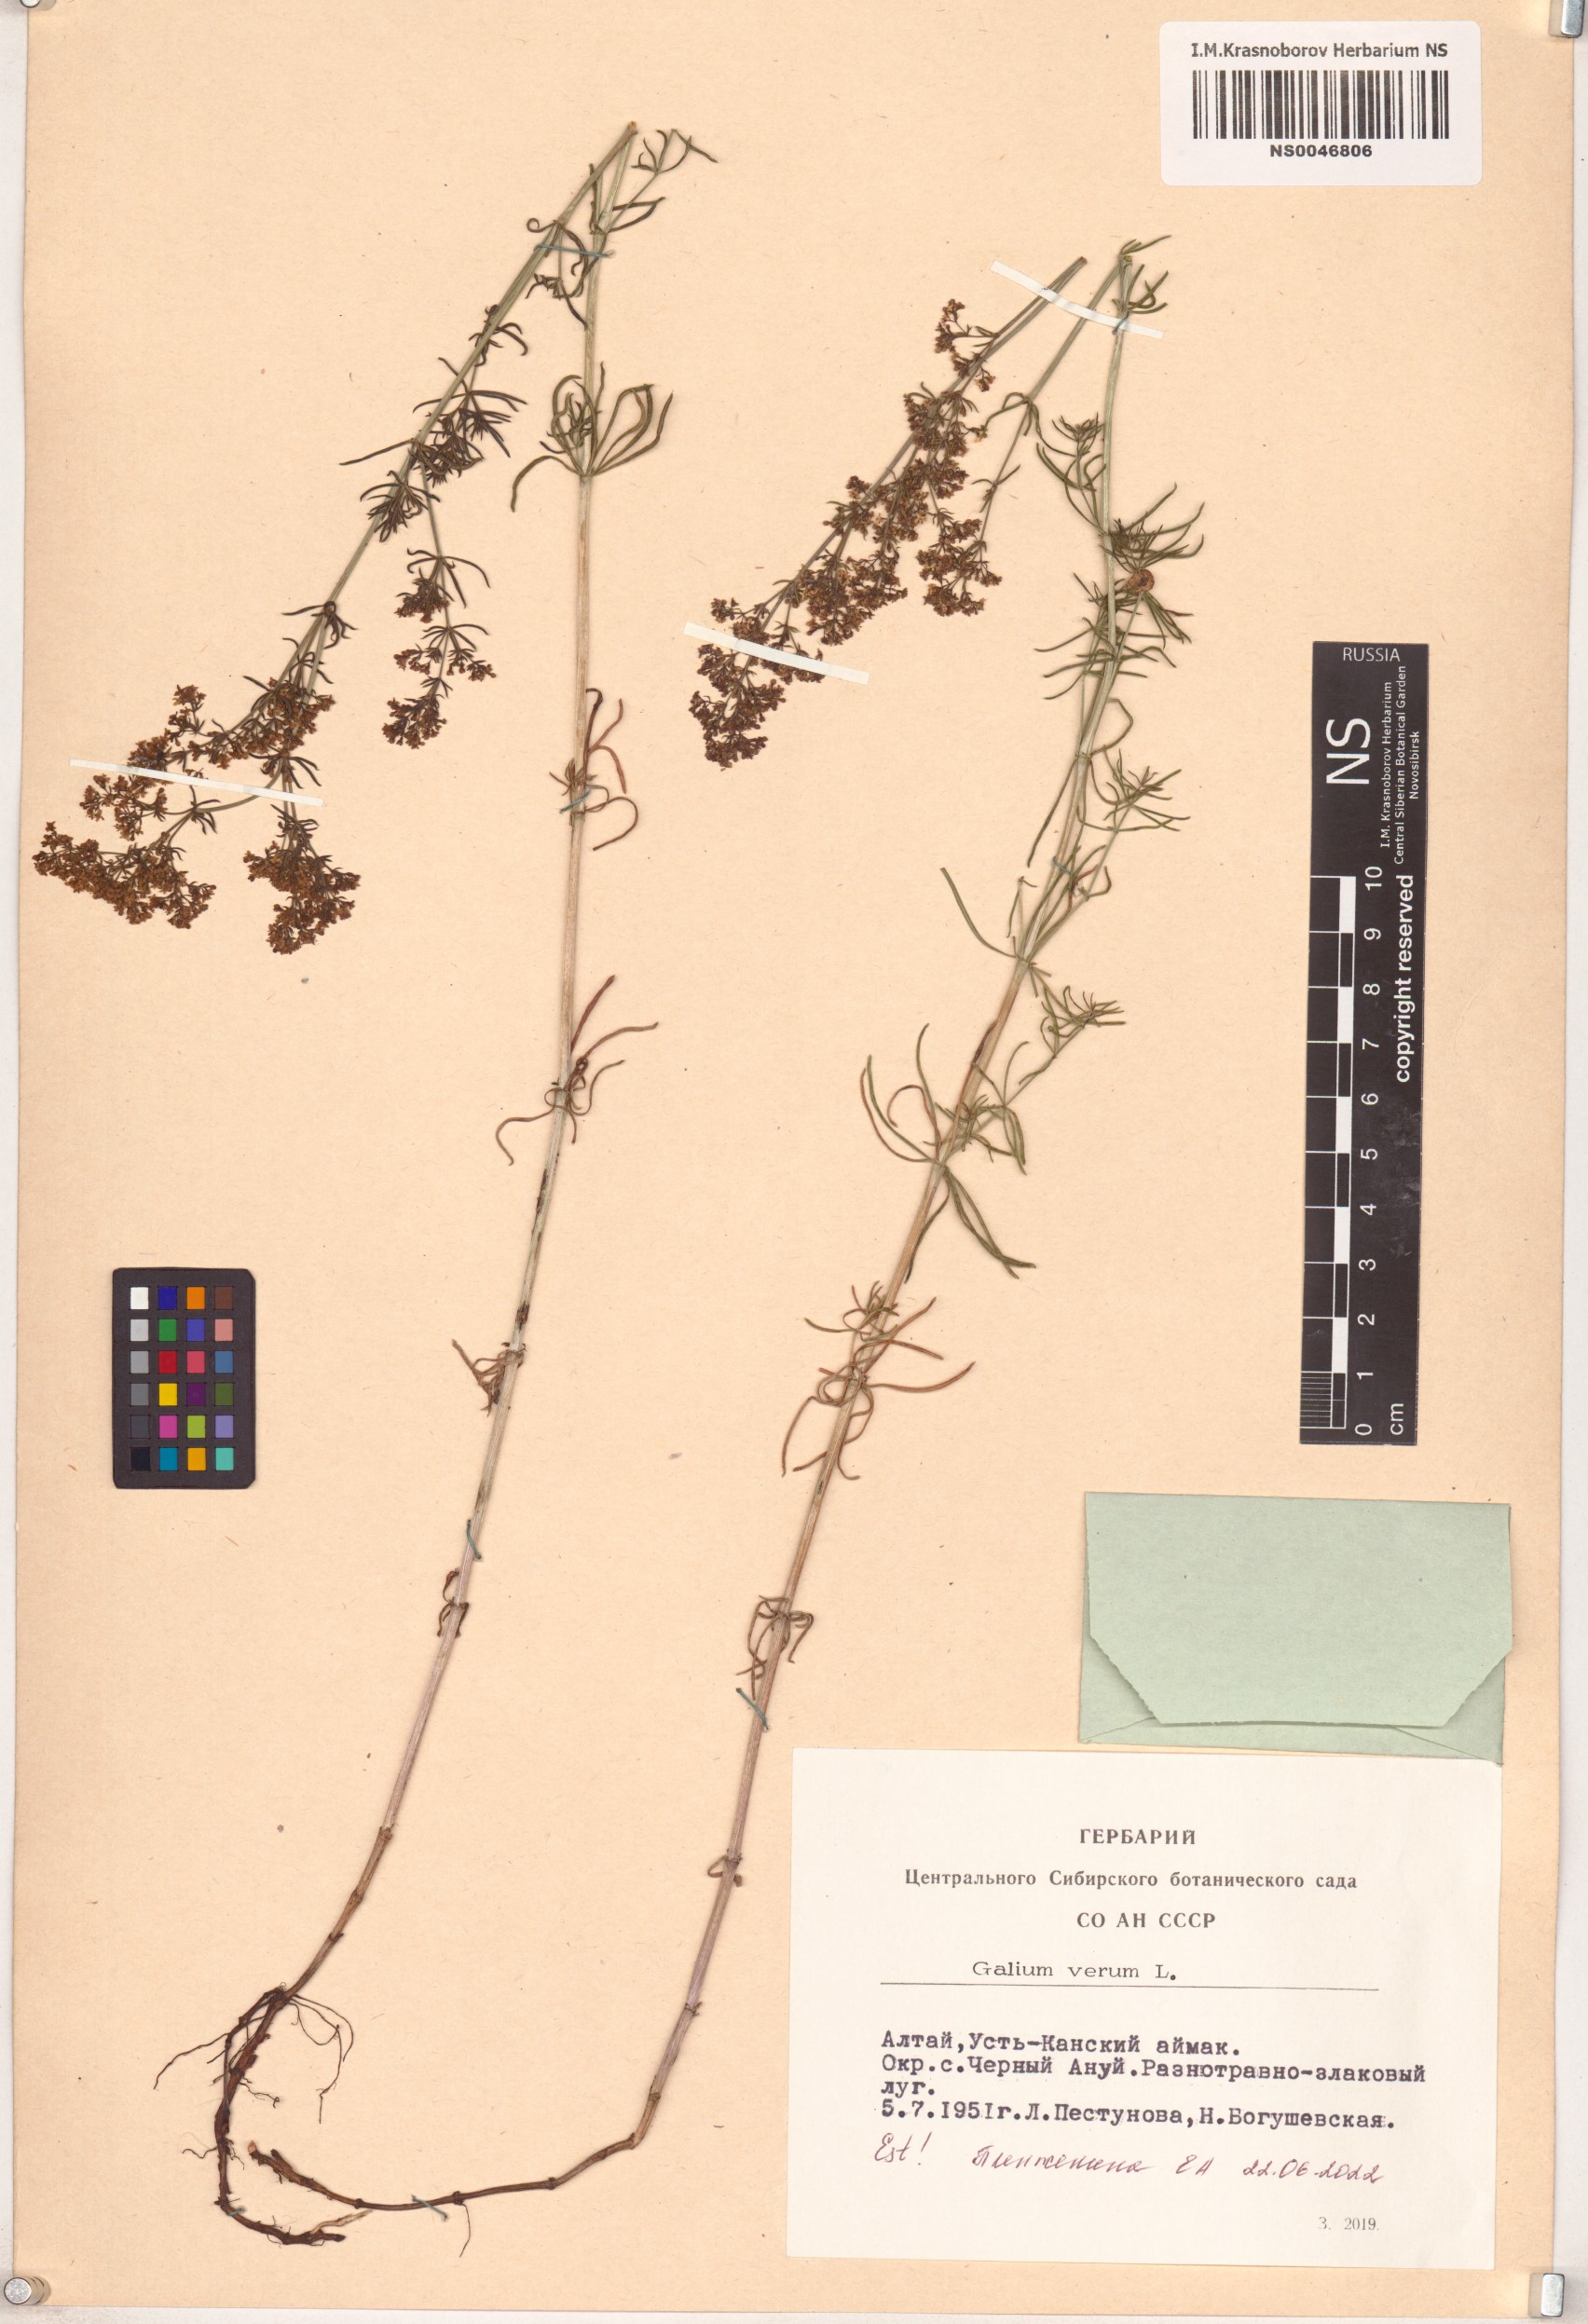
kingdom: Plantae
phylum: Tracheophyta
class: Magnoliopsida
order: Gentianales
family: Rubiaceae
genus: Galium
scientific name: Galium verum
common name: Lady's bedstraw
